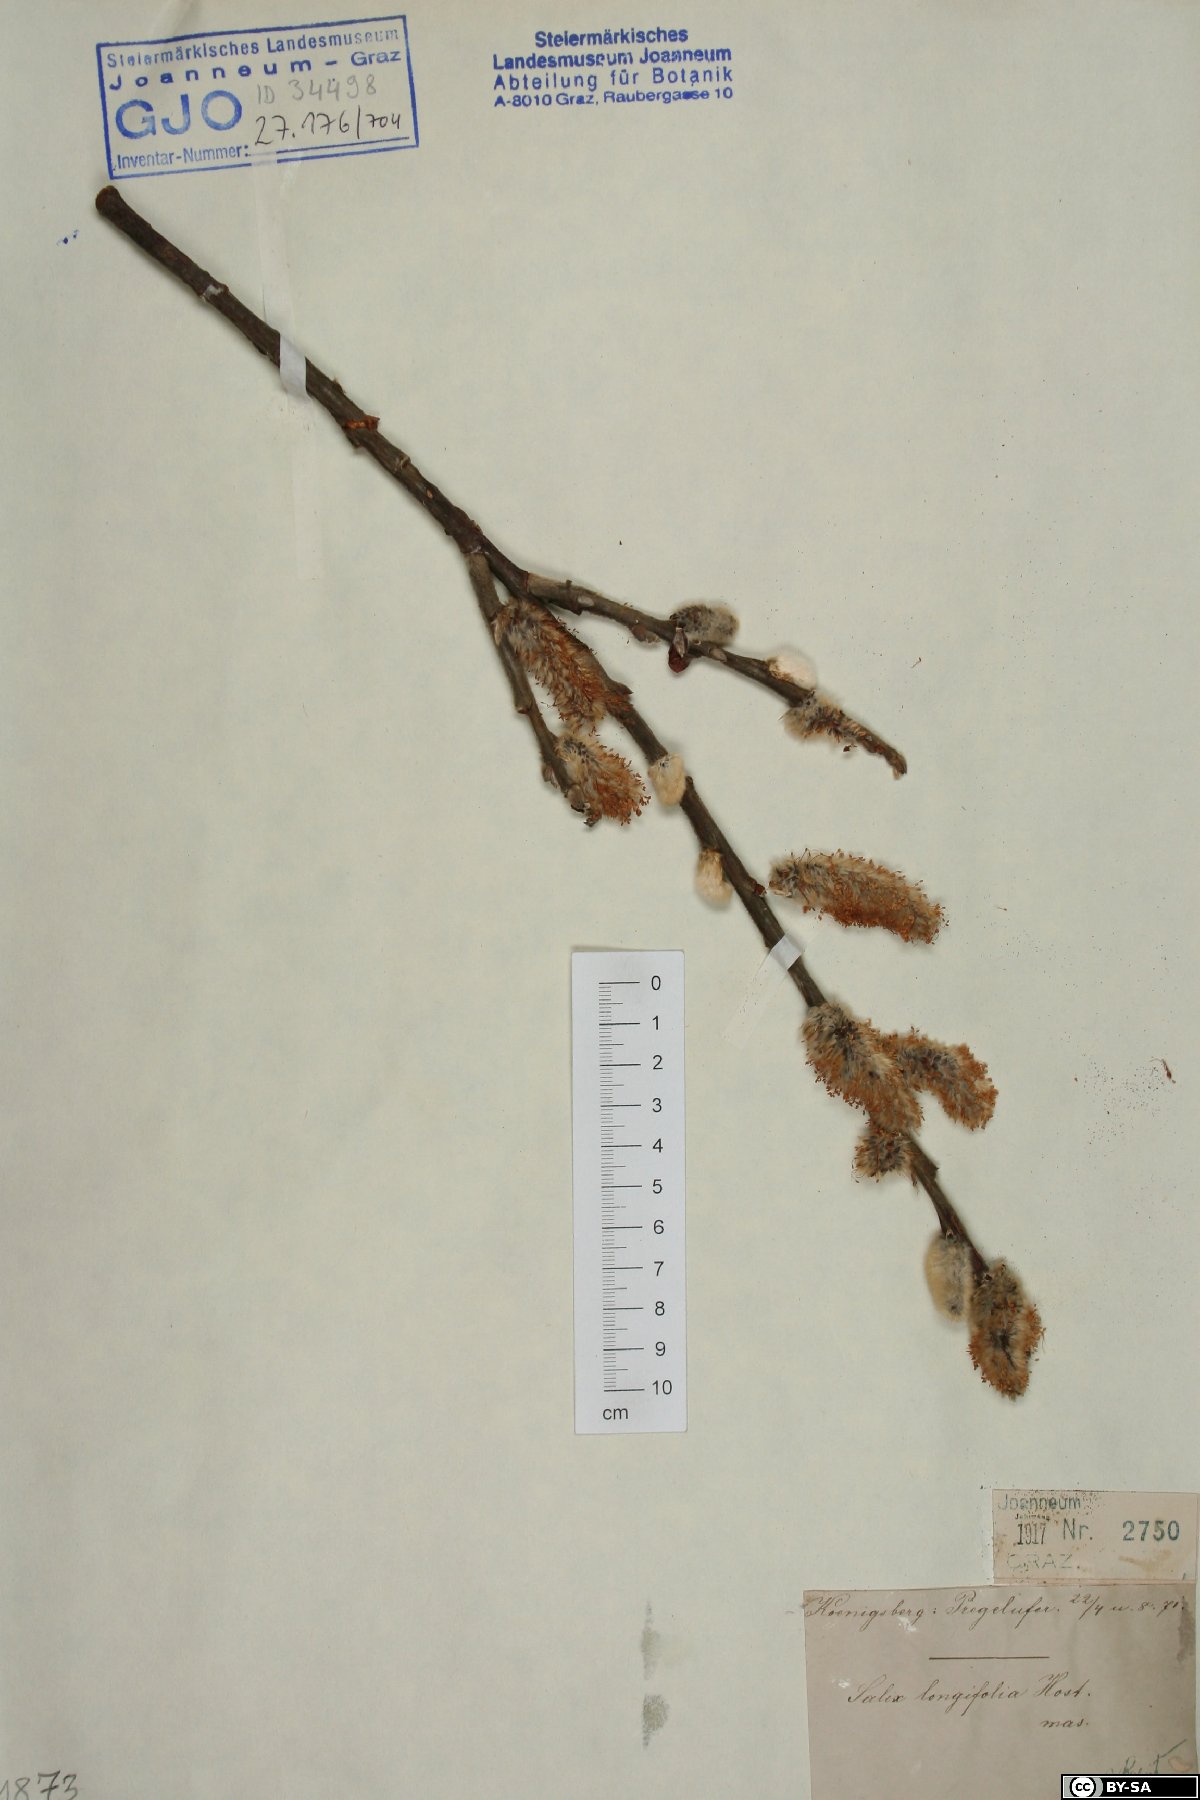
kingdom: Plantae
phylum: Tracheophyta
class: Magnoliopsida
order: Malpighiales
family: Salicaceae
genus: Salix
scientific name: Salix gmelinii
